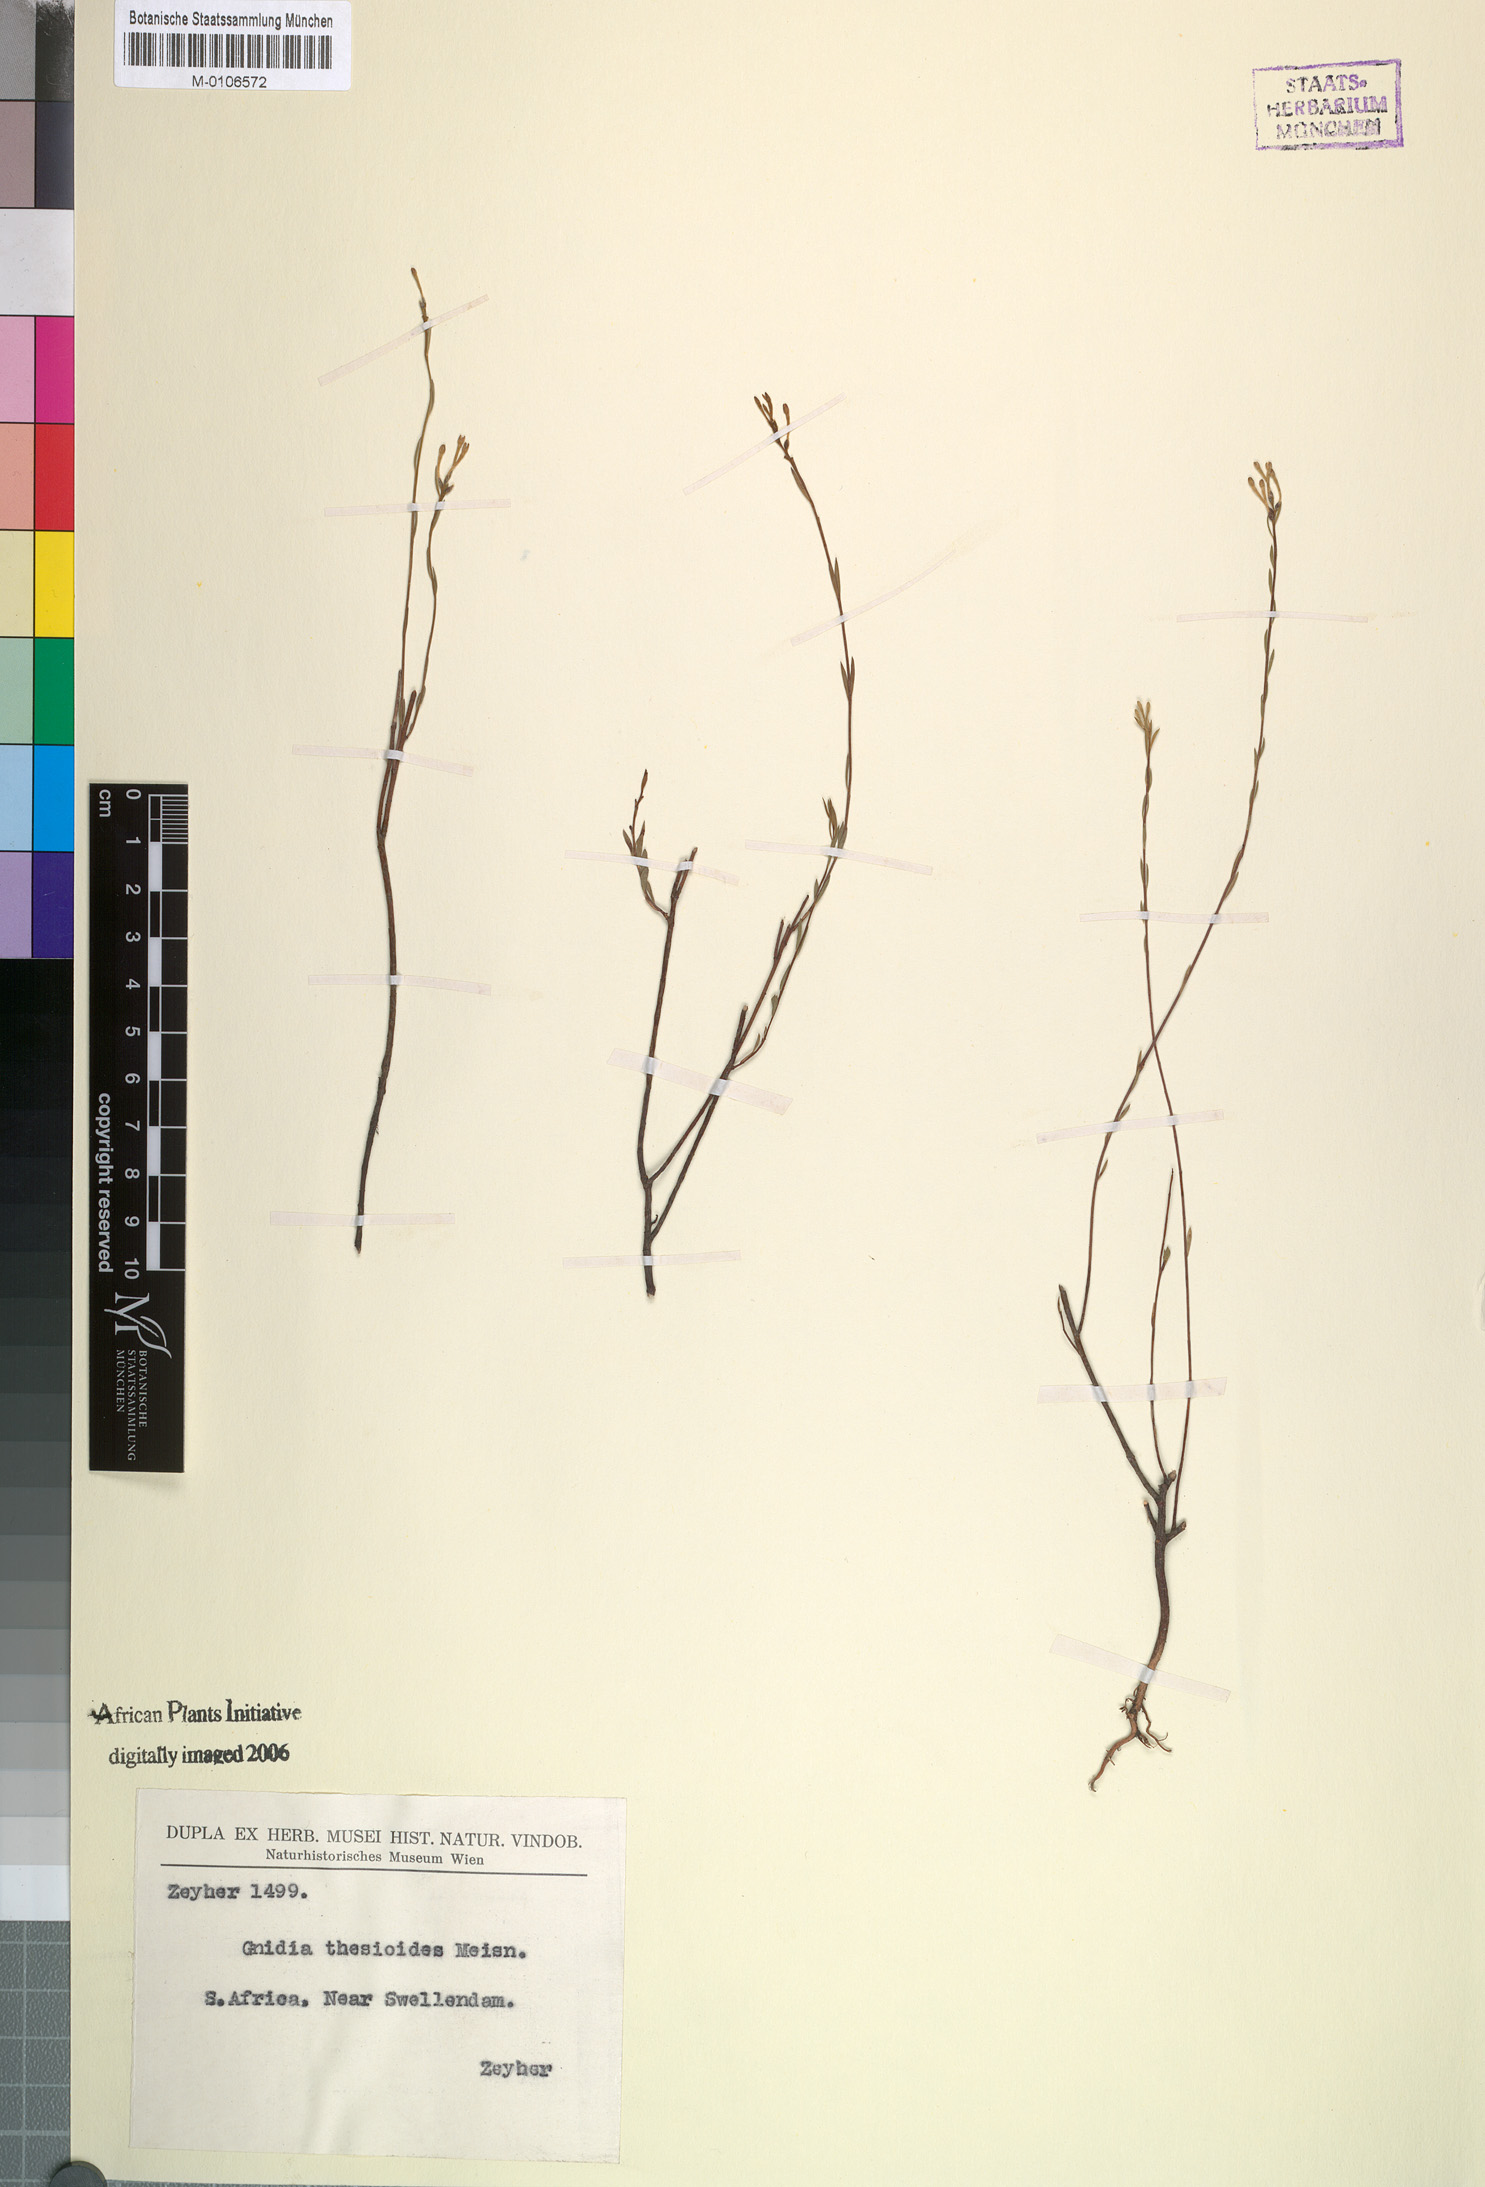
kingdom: Plantae
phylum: Tracheophyta
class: Magnoliopsida
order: Malvales
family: Thymelaeaceae
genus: Gnidia
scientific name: Gnidia thesioides
